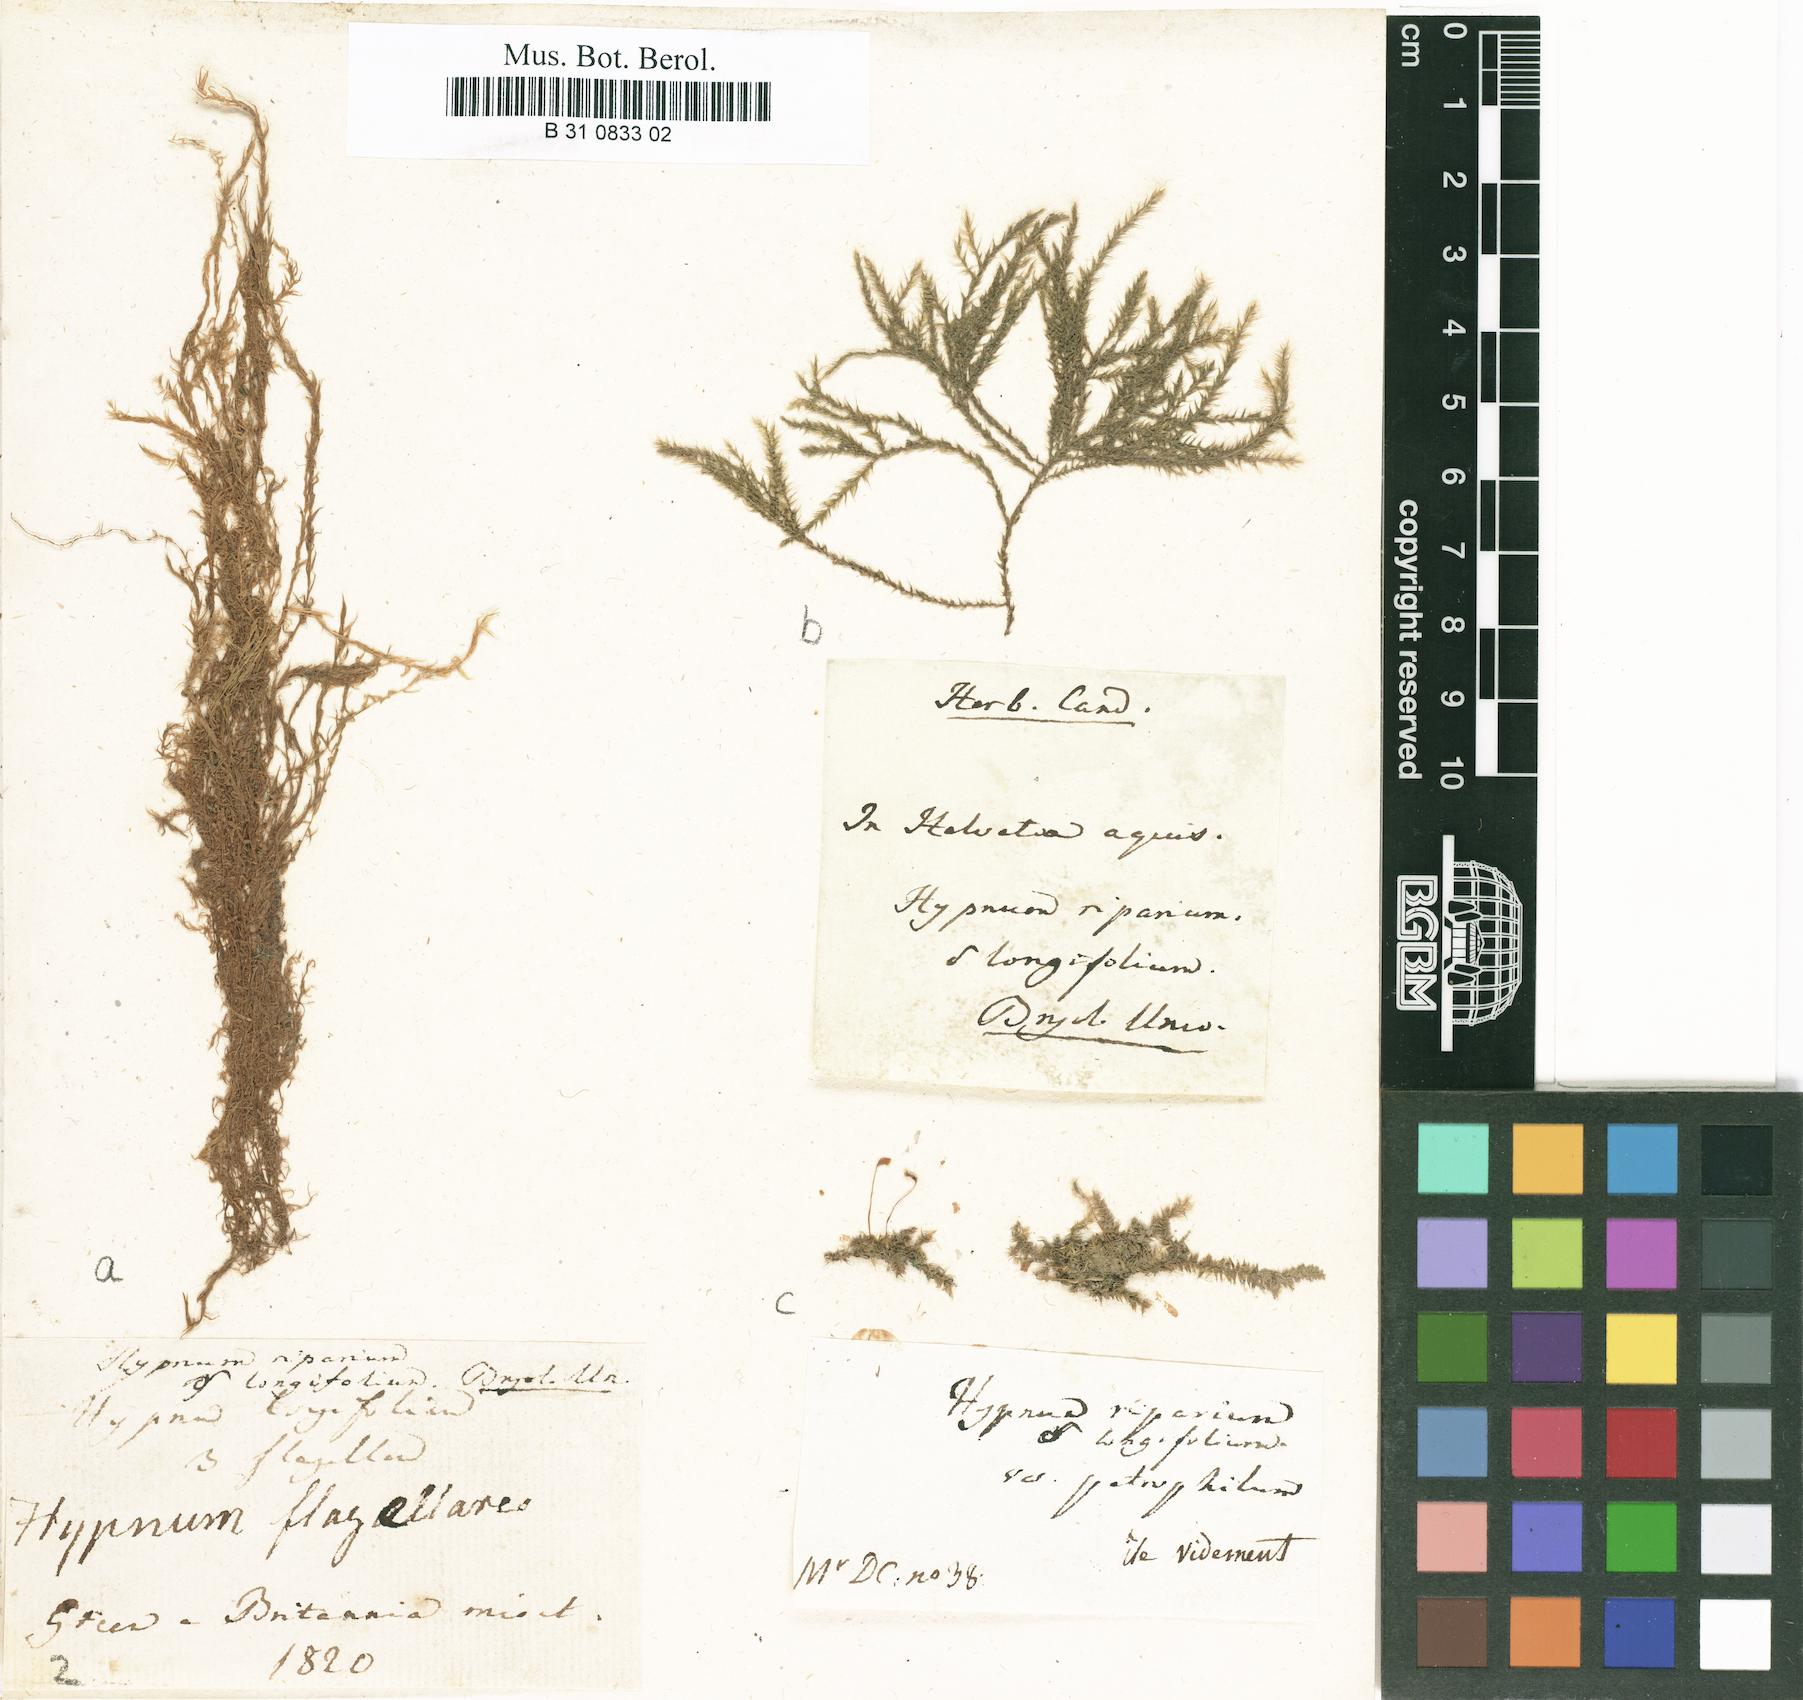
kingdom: Plantae
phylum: Bryophyta
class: Bryopsida
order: Hypnales
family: Amblystegiaceae
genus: Leptodictyum
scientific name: Leptodictyum riparium
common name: Riparian feather moss
